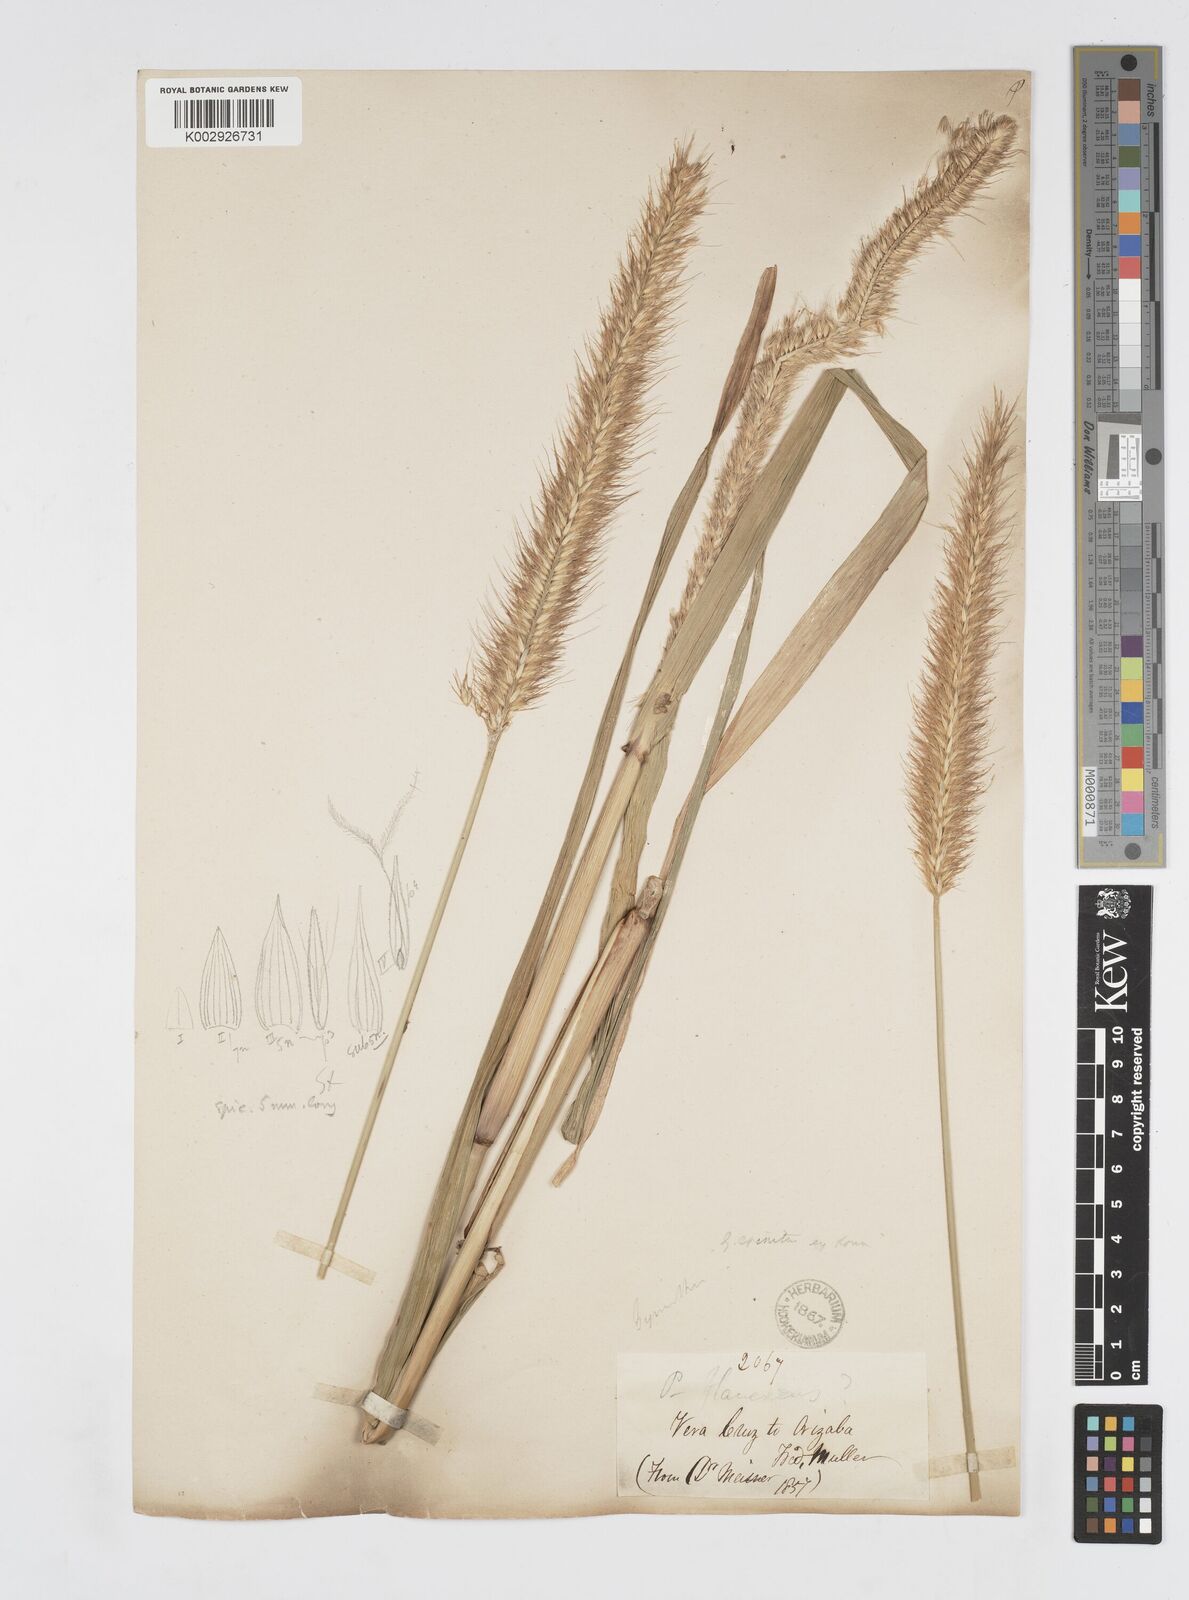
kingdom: Plantae
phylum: Tracheophyta
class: Liliopsida
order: Poales
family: Poaceae
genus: Cenchrus
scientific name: Cenchrus complanatus
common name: Nicaraguan fountaingrass
